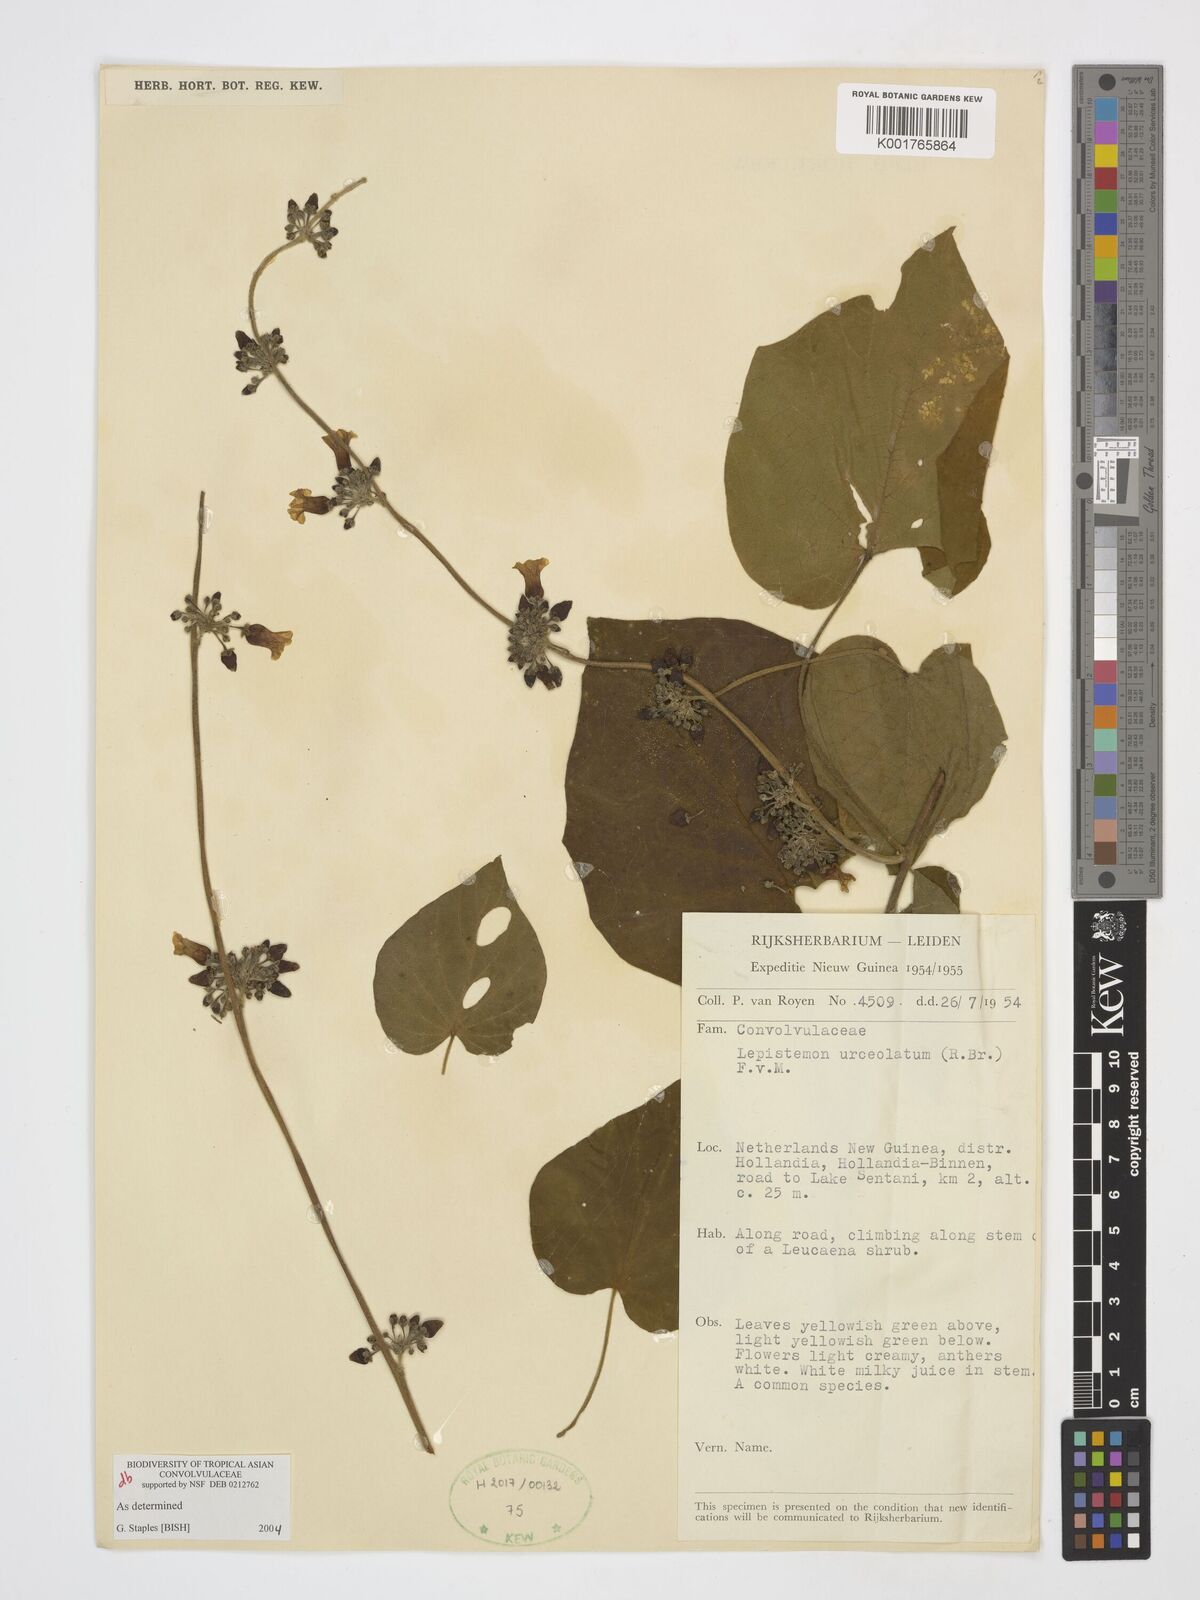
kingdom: Plantae
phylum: Tracheophyta
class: Magnoliopsida
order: Solanales
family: Convolvulaceae
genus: Lepistemon
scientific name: Lepistemon urceolatus
